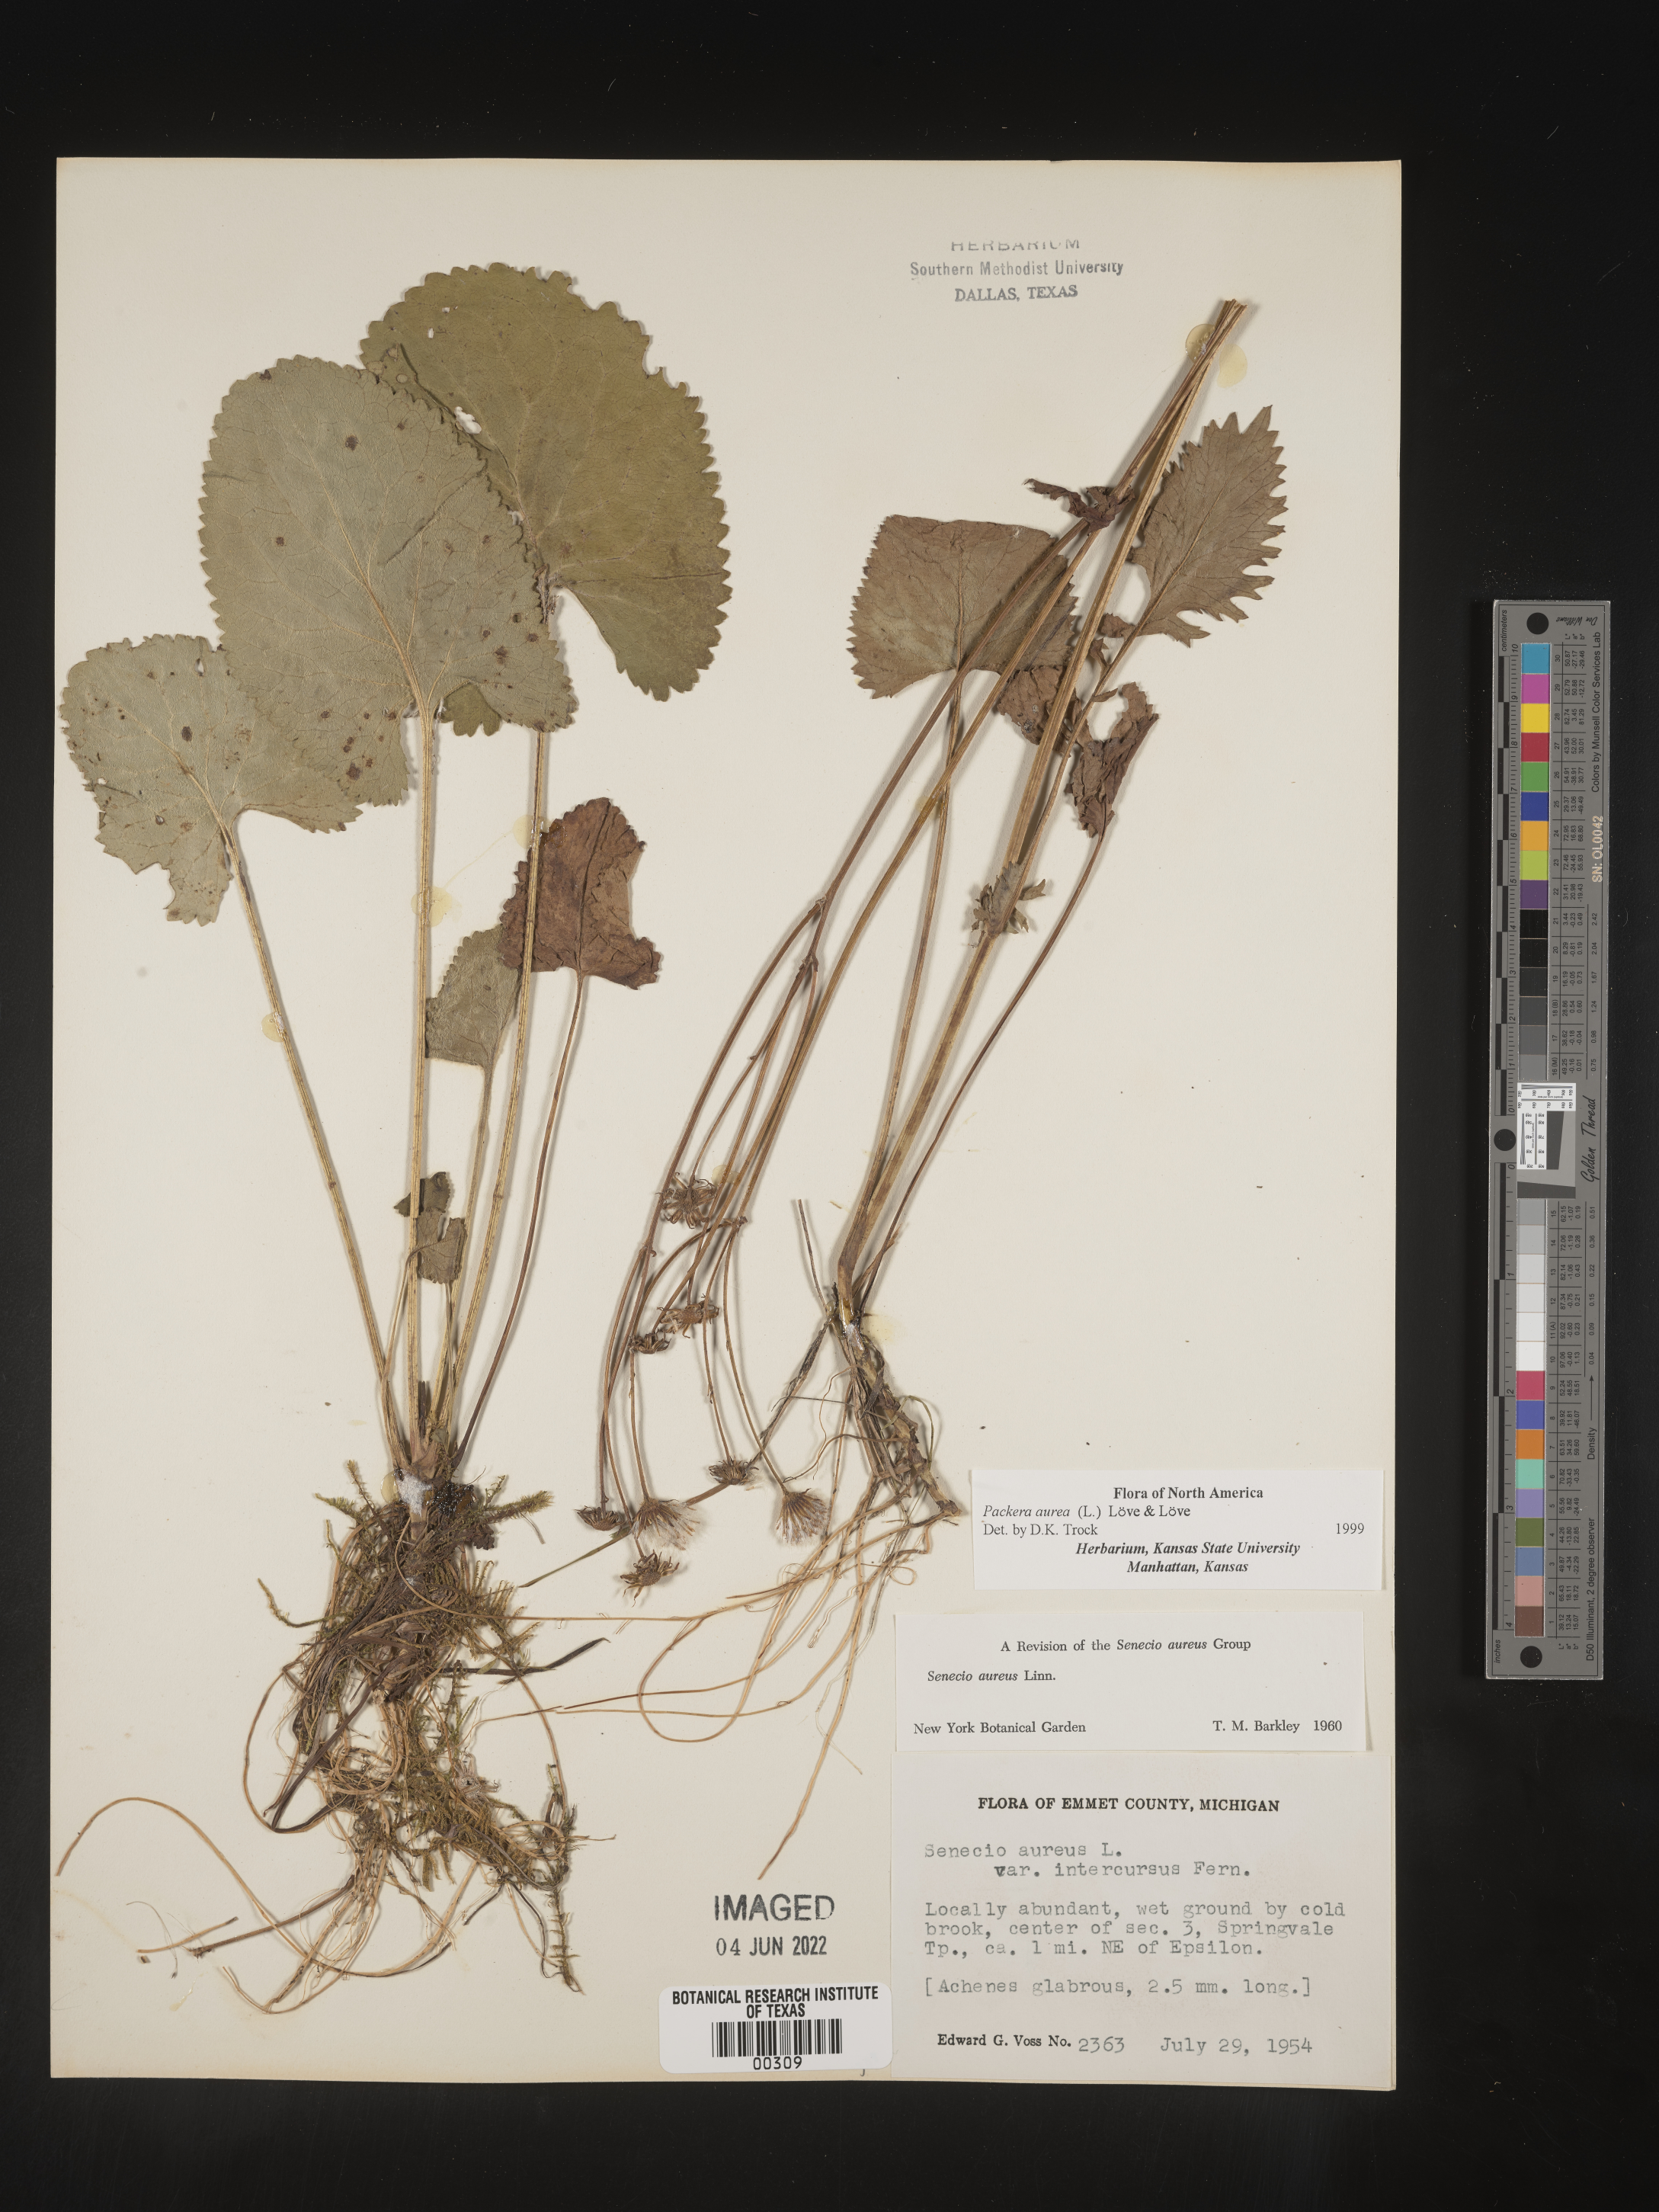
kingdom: Plantae
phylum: Tracheophyta
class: Magnoliopsida
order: Asterales
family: Asteraceae
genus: Packera
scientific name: Packera aurea
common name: Golden groundsel
